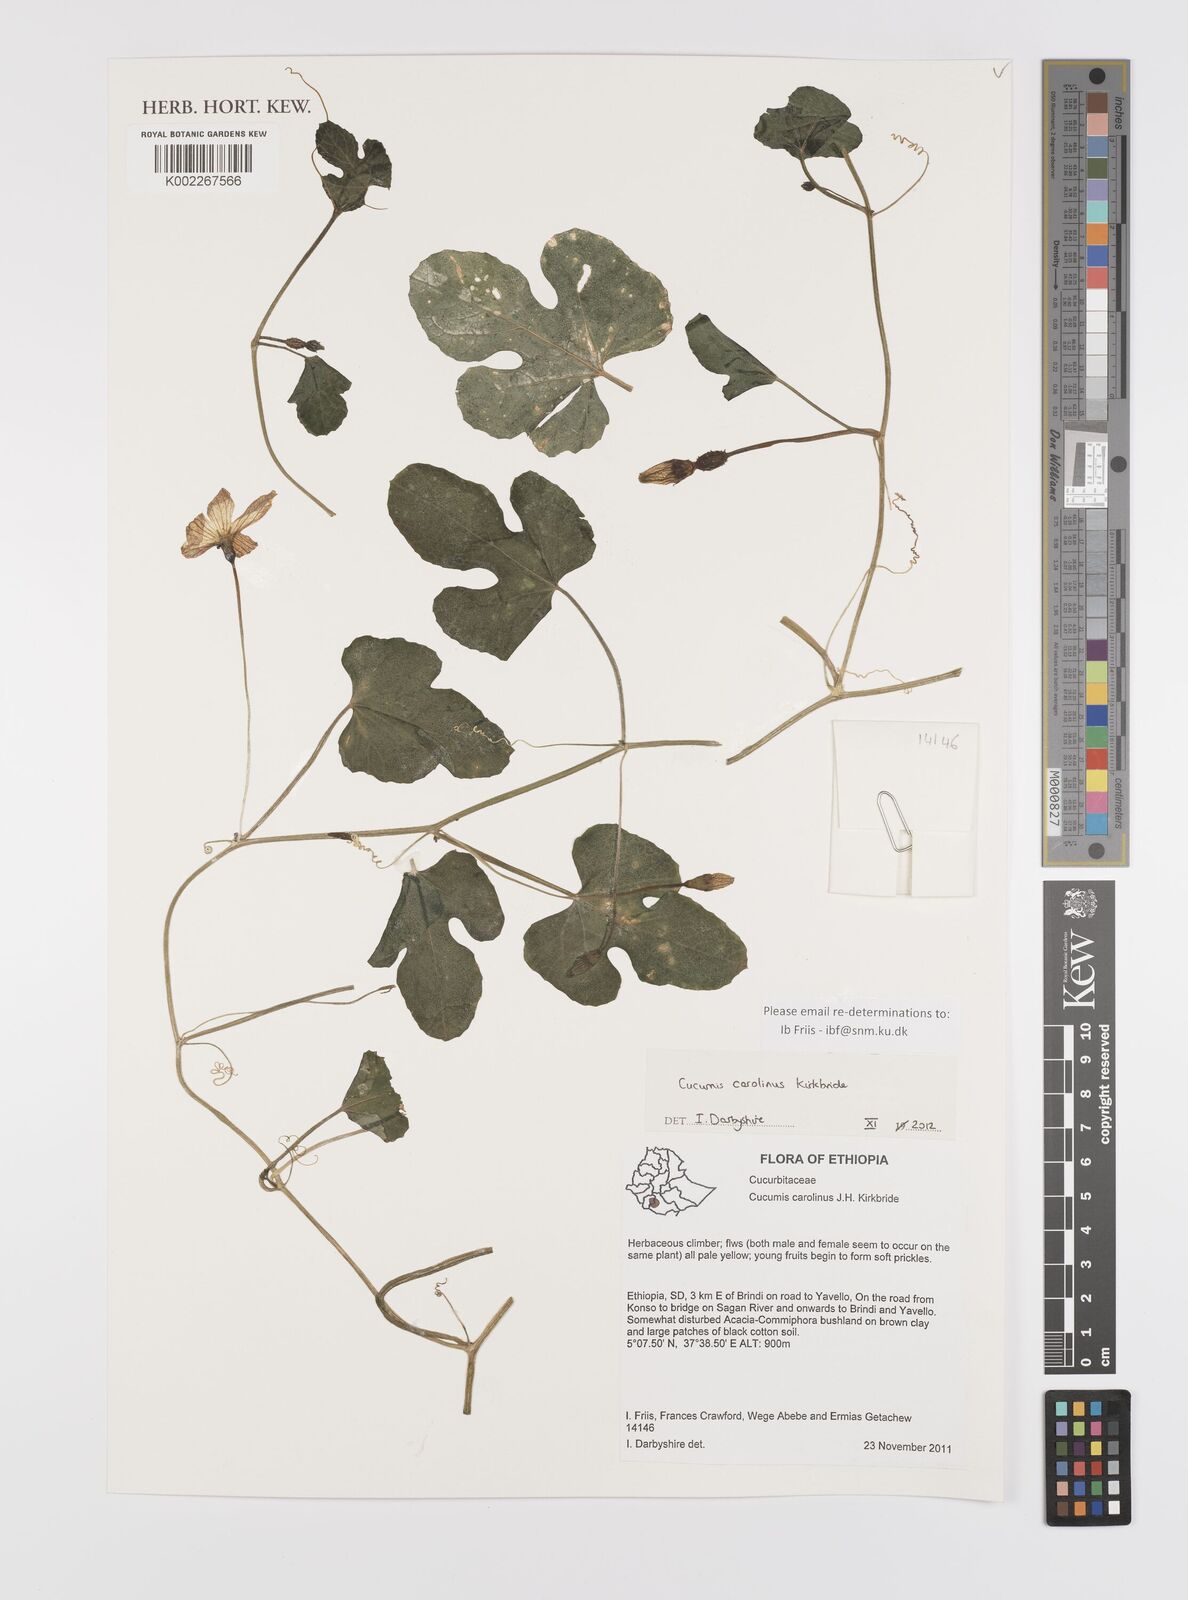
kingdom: Plantae
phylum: Tracheophyta
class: Magnoliopsida
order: Cucurbitales
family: Cucurbitaceae
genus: Cucumis
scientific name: Cucumis carolinus
